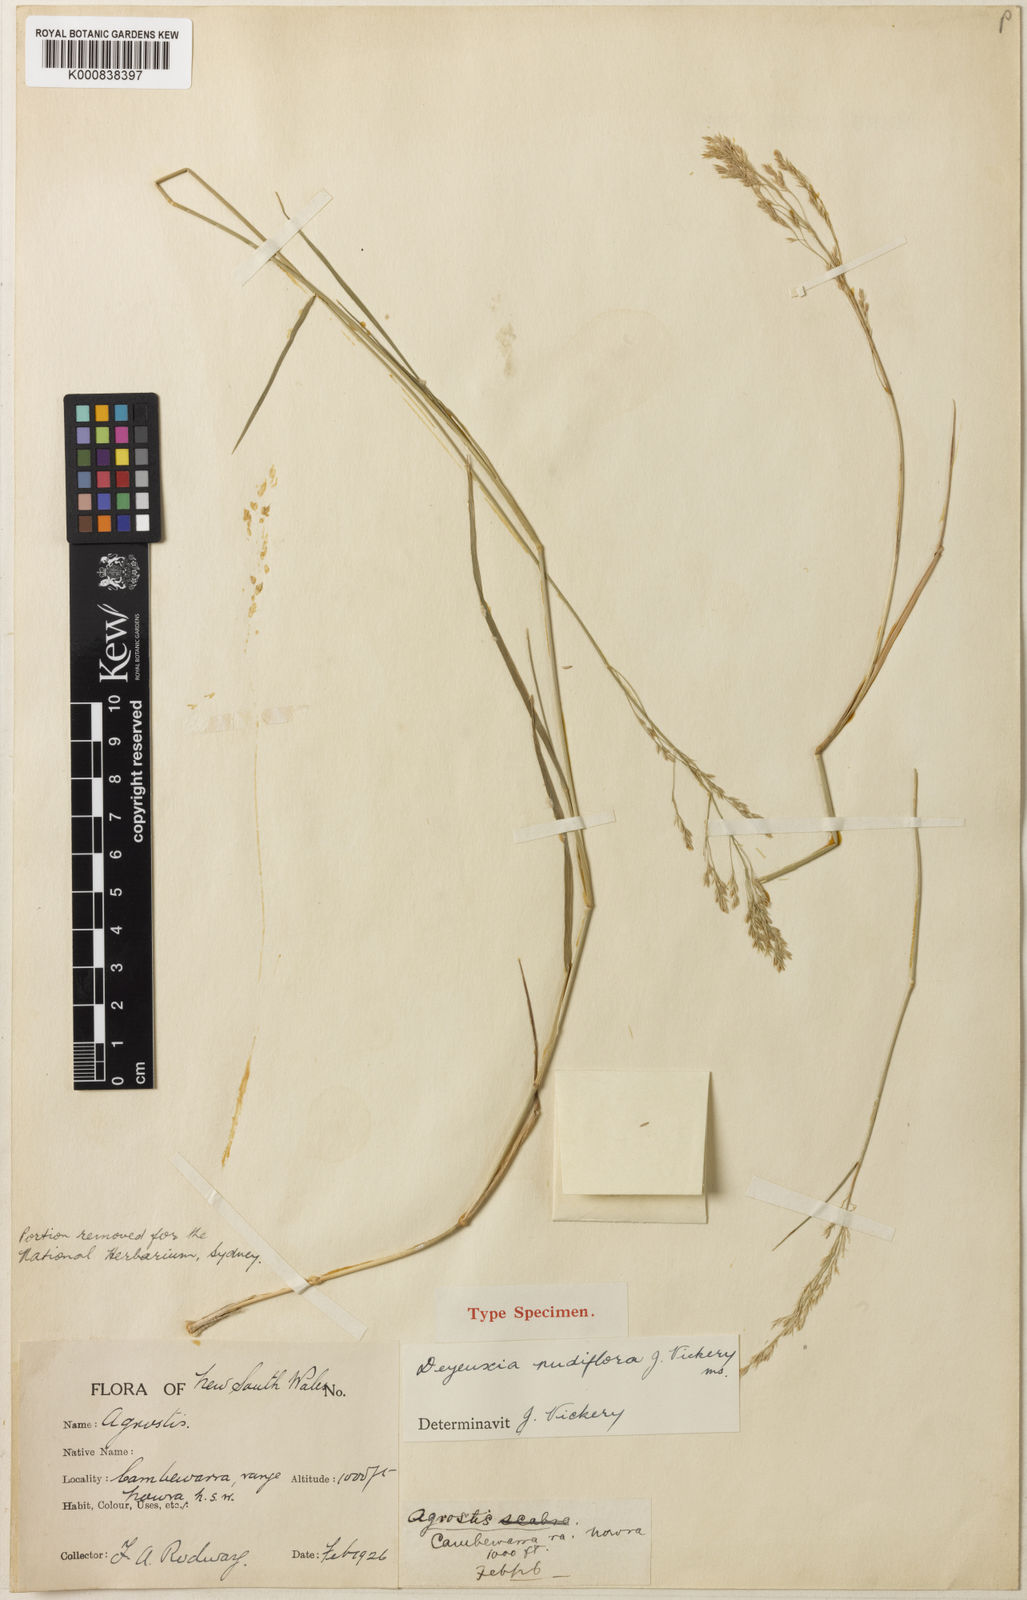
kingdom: Plantae
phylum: Tracheophyta
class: Liliopsida
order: Poales
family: Poaceae
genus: Calamagrostis
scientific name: Calamagrostis nudiflora
